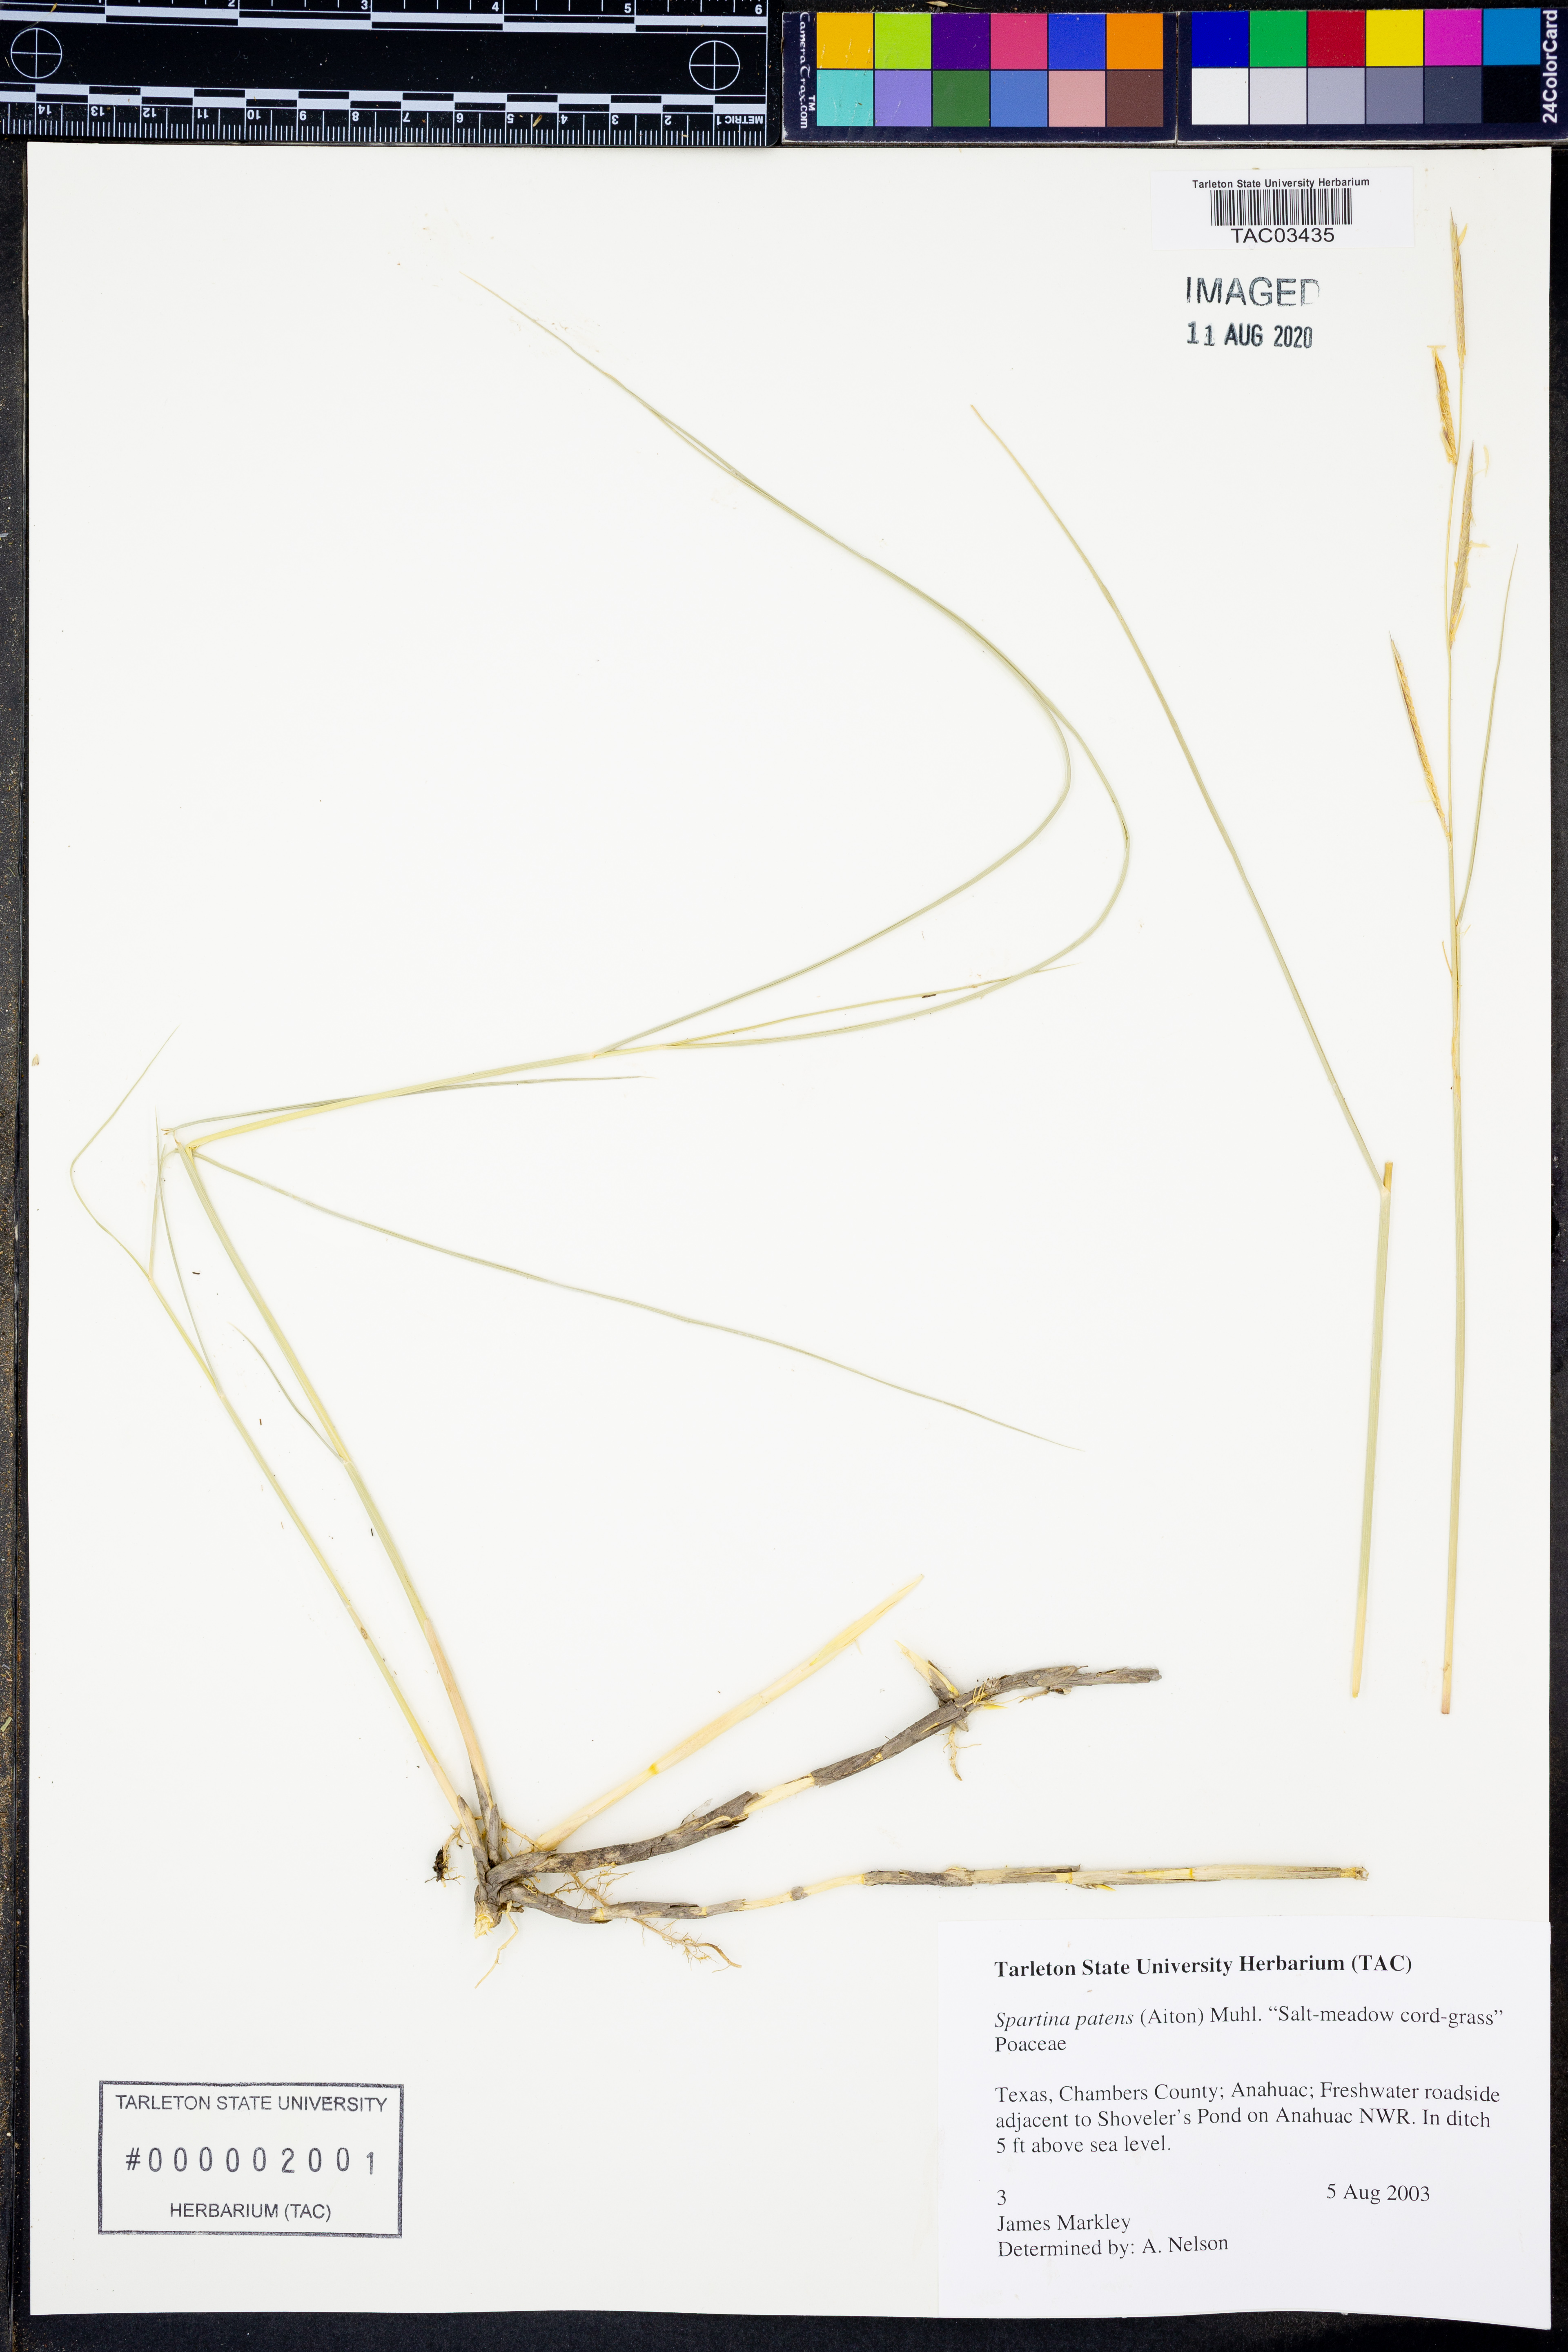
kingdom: Plantae
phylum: Tracheophyta
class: Liliopsida
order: Poales
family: Poaceae
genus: Sporobolus
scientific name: Sporobolus pumilus
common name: Highwater grass
